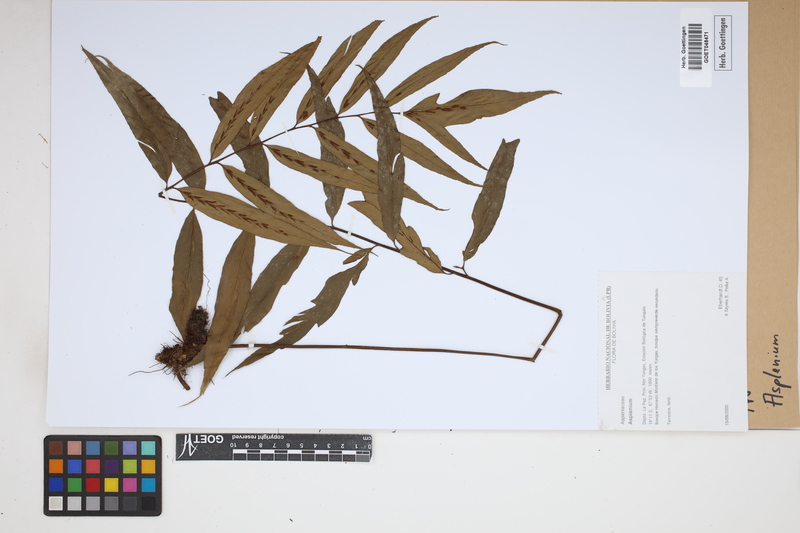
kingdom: Plantae
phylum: Tracheophyta
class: Polypodiopsida
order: Polypodiales
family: Aspleniaceae
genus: Asplenium
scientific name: Asplenium
